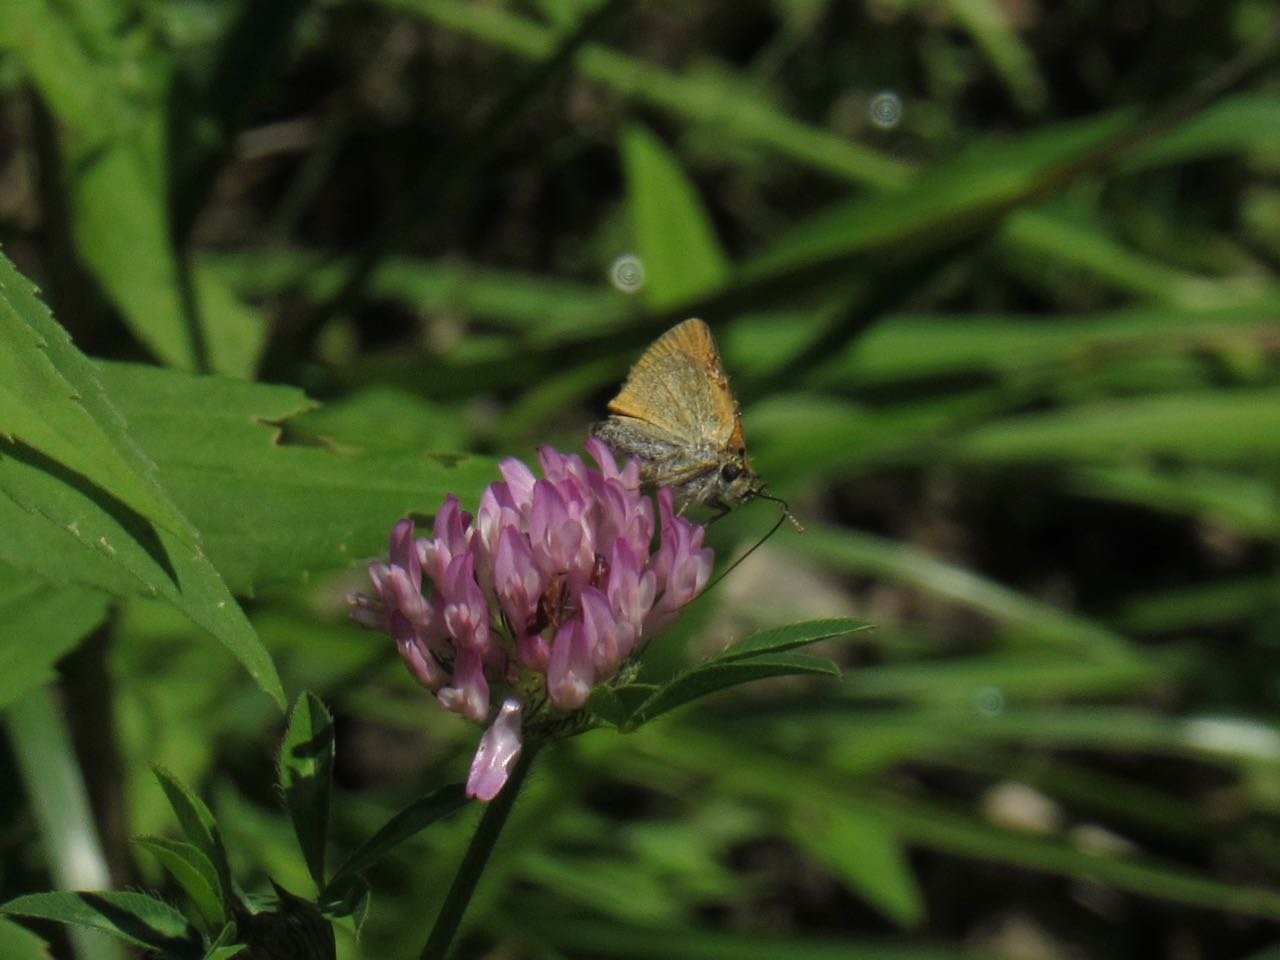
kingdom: Animalia
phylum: Arthropoda
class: Insecta
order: Lepidoptera
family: Hesperiidae
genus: Thymelicus
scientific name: Thymelicus lineola
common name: European Skipper
